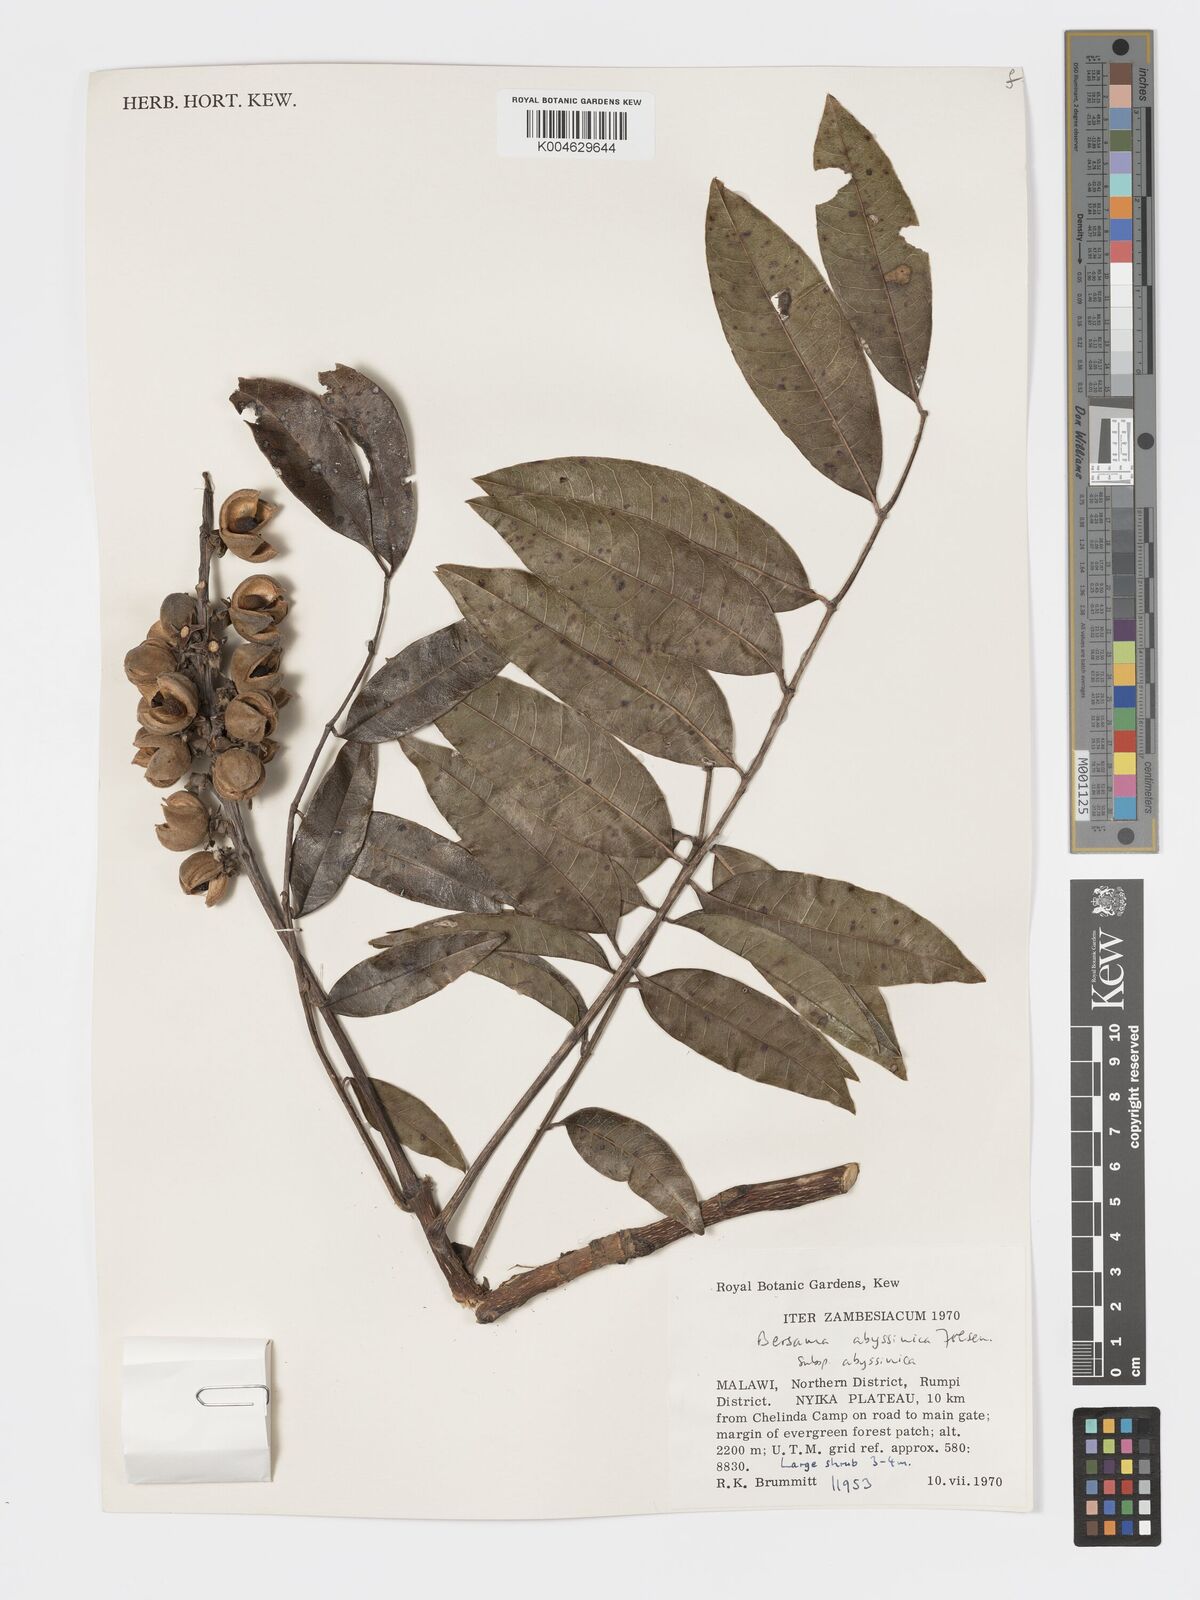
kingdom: Plantae
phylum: Tracheophyta
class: Magnoliopsida
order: Geraniales
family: Francoaceae
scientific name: Francoaceae
